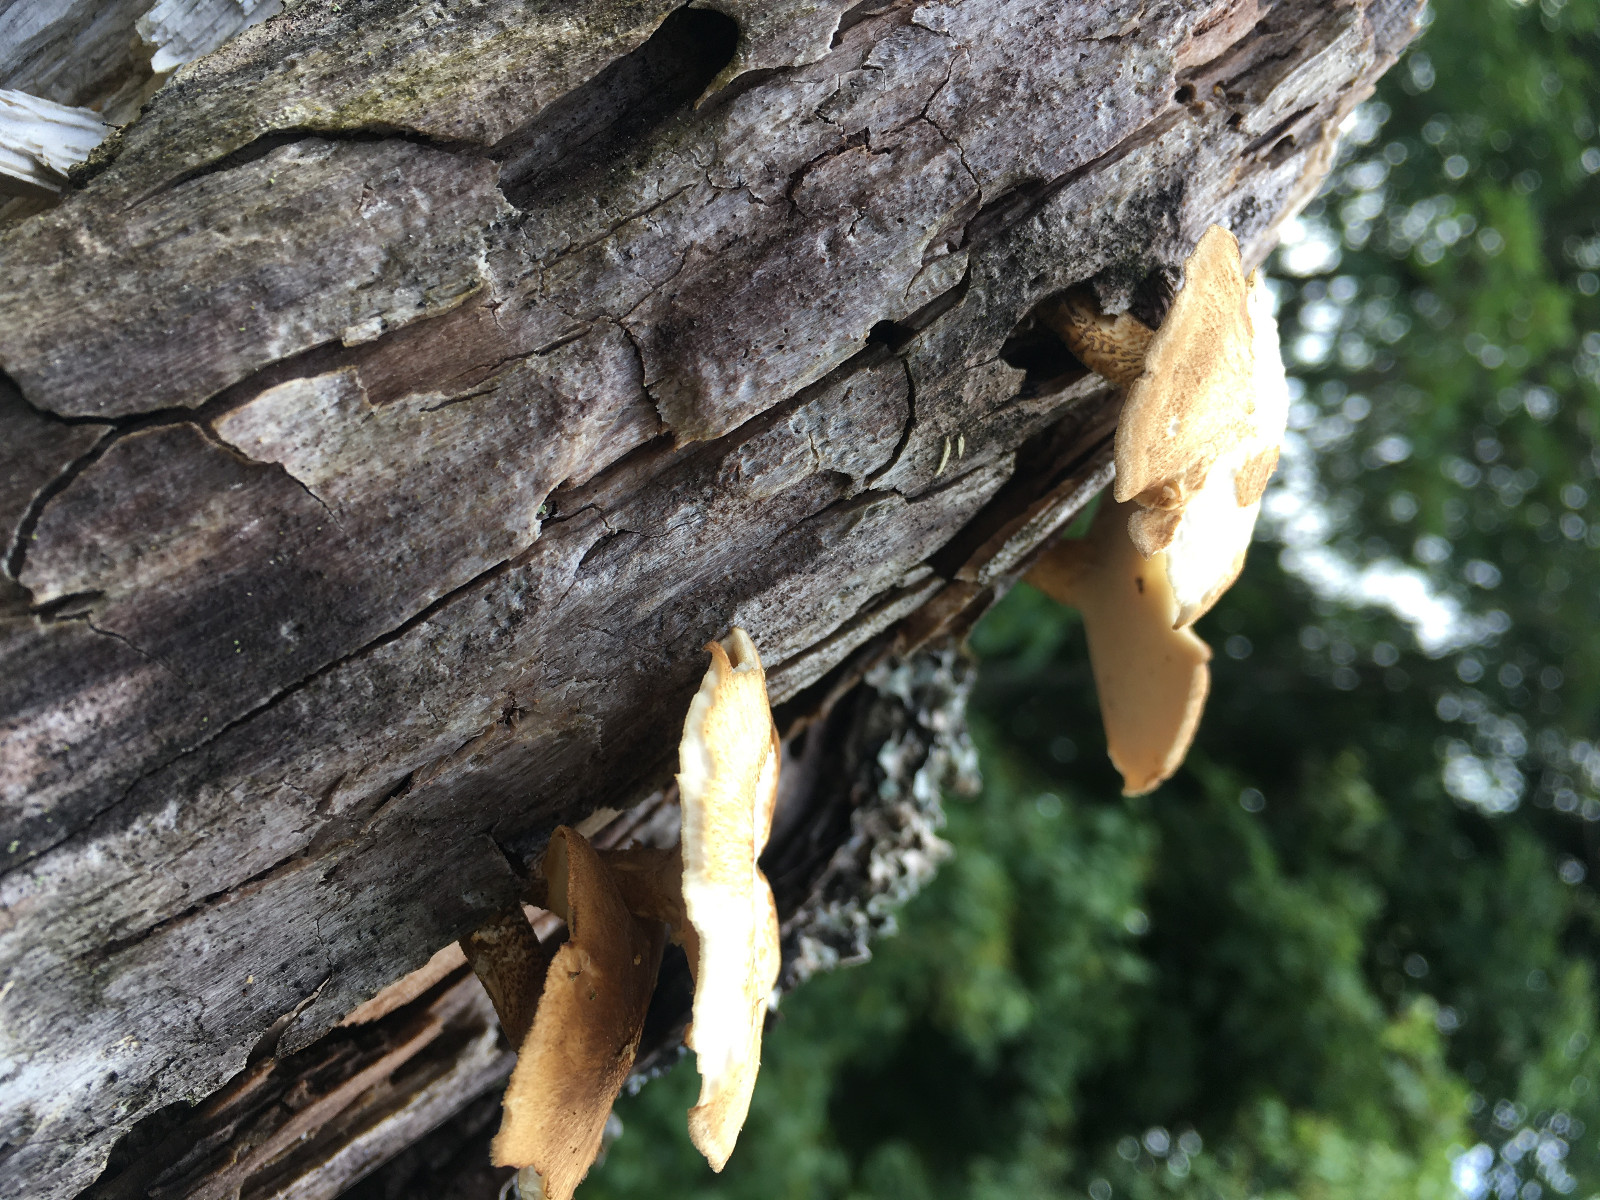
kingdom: Fungi
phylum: Basidiomycota
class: Agaricomycetes
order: Polyporales
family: Polyporaceae
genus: Lentinus
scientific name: Lentinus substrictus
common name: forårs-stilkporesvamp
